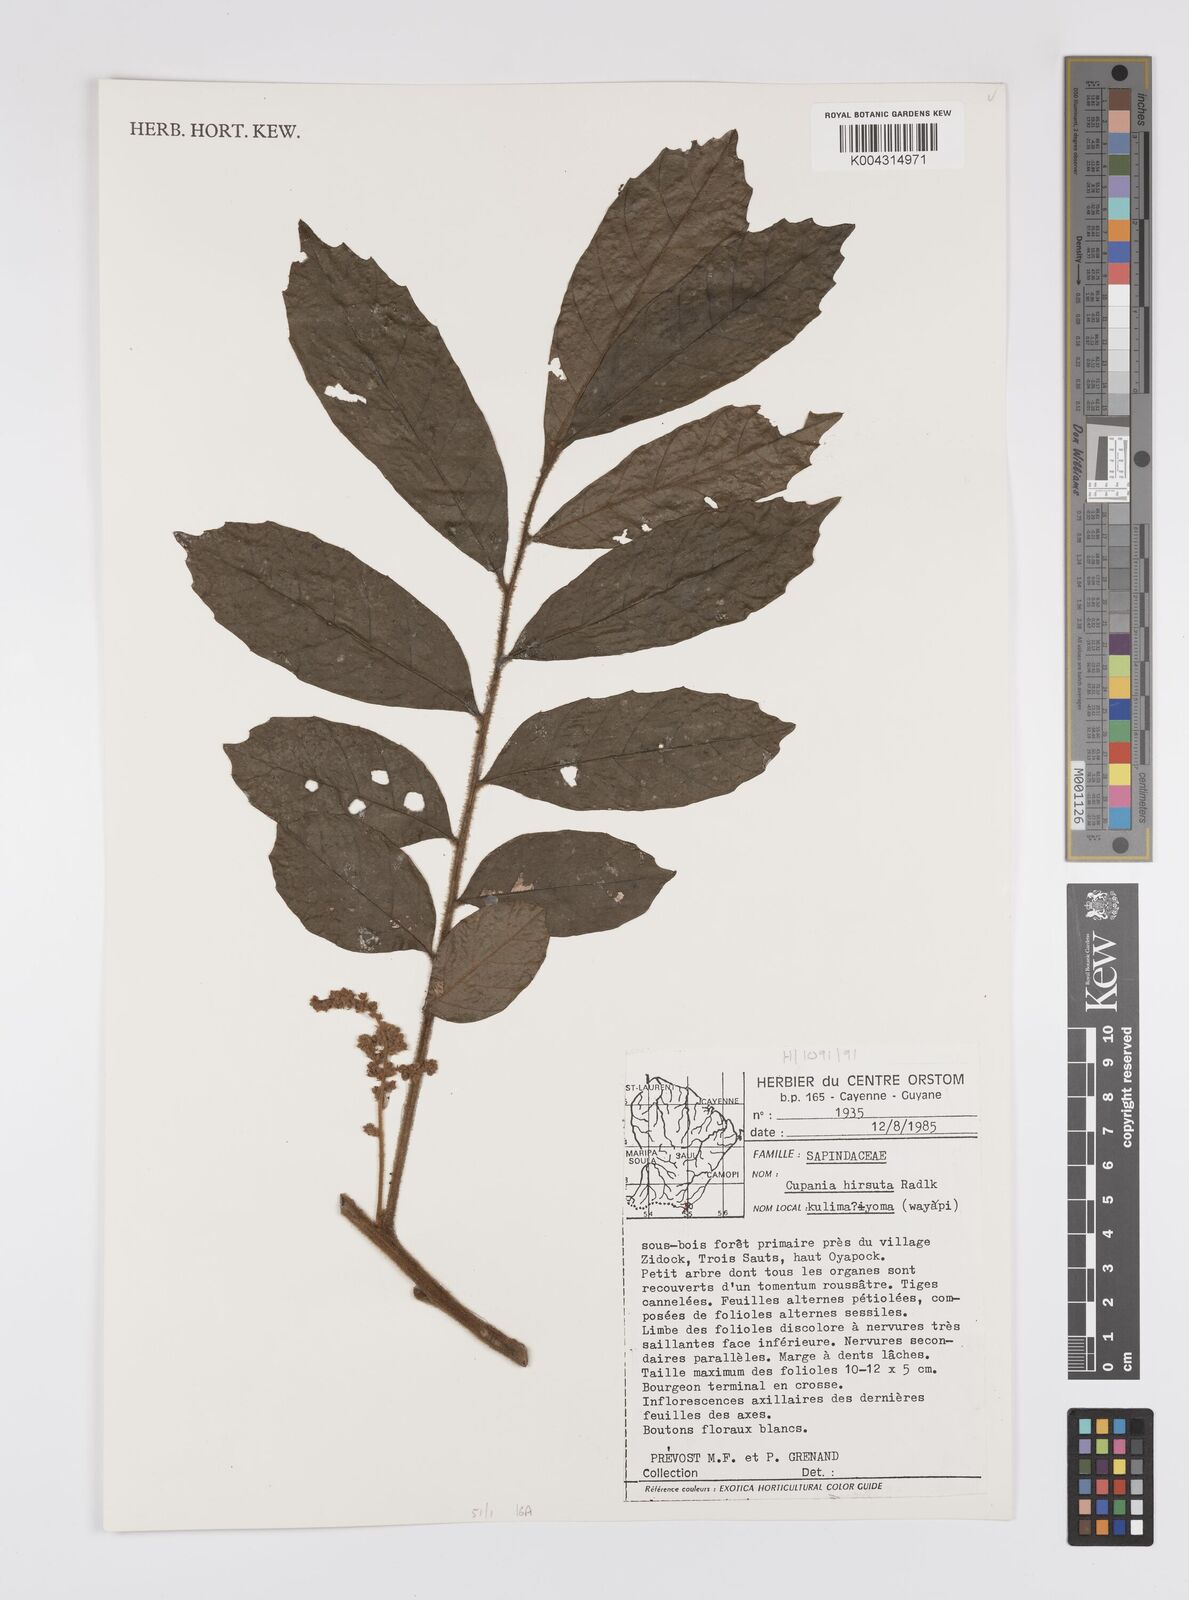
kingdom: Plantae
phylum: Tracheophyta
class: Magnoliopsida
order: Sapindales
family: Sapindaceae
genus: Cupania
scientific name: Cupania hirsuta
